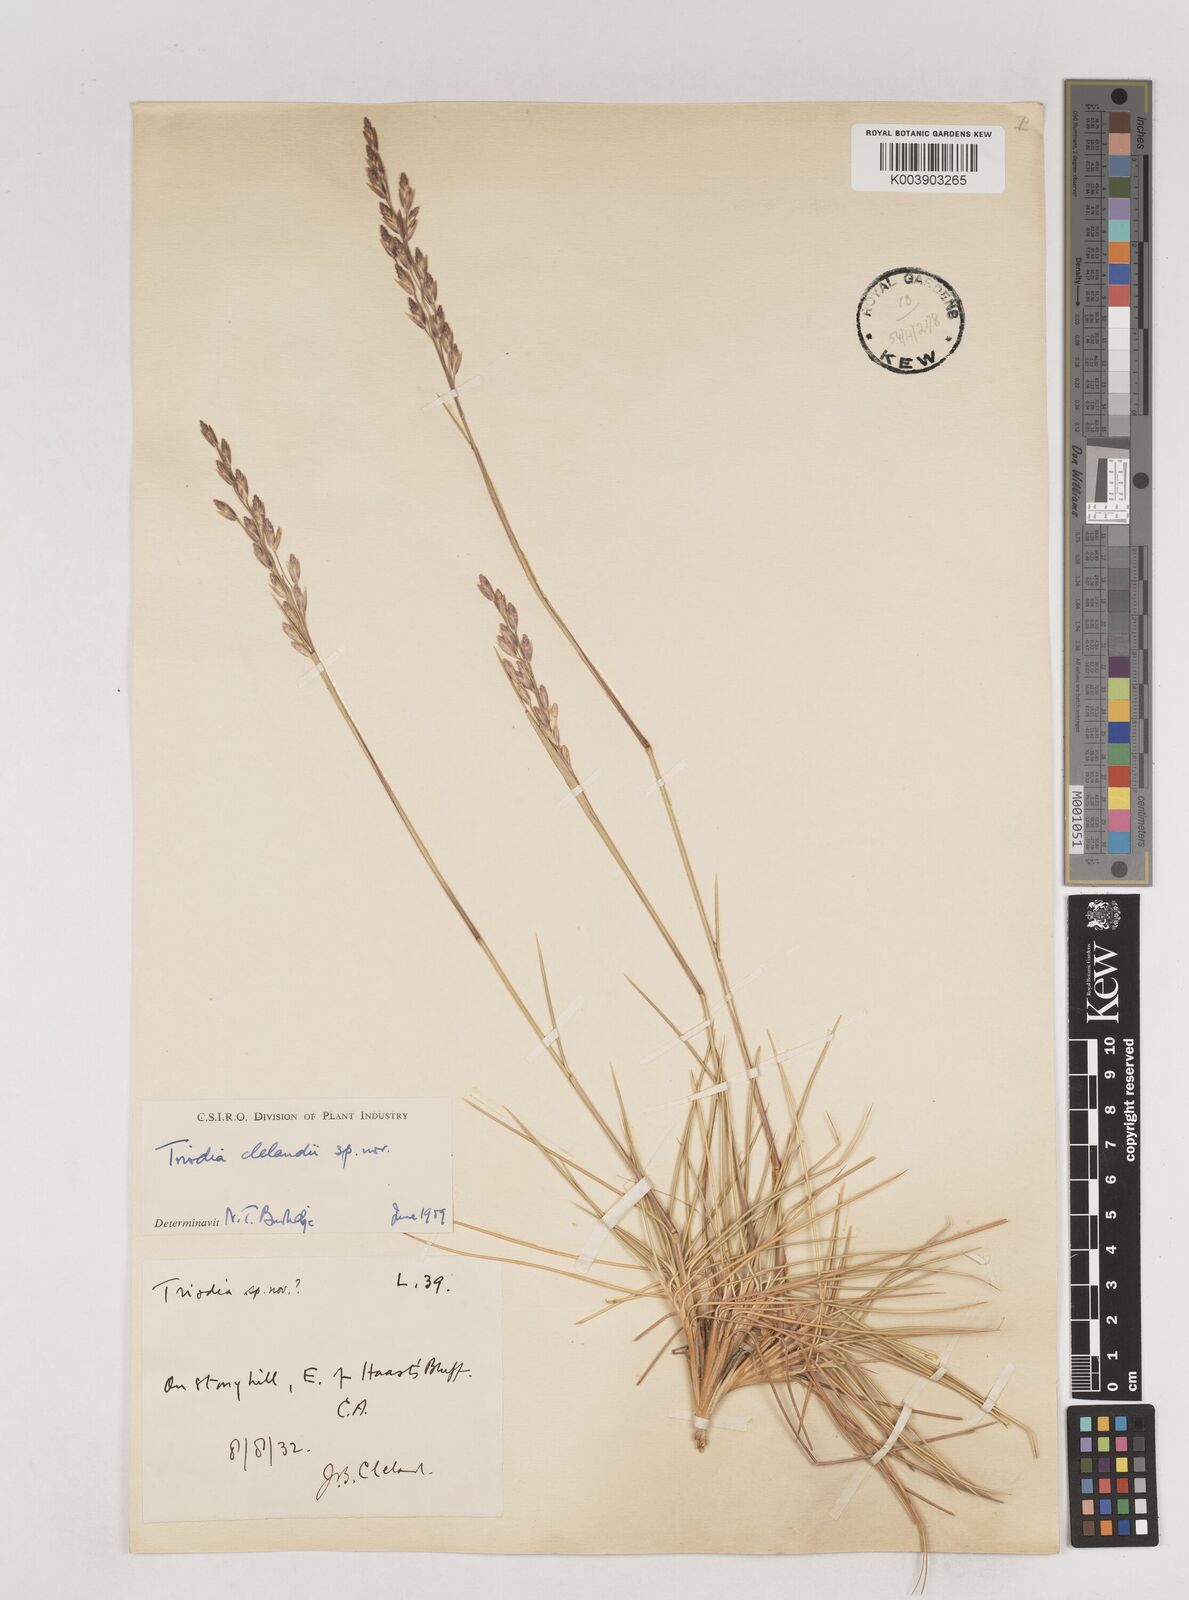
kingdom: Plantae
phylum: Tracheophyta
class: Liliopsida
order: Poales
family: Poaceae
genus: Triodia
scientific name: Triodia brizoides
